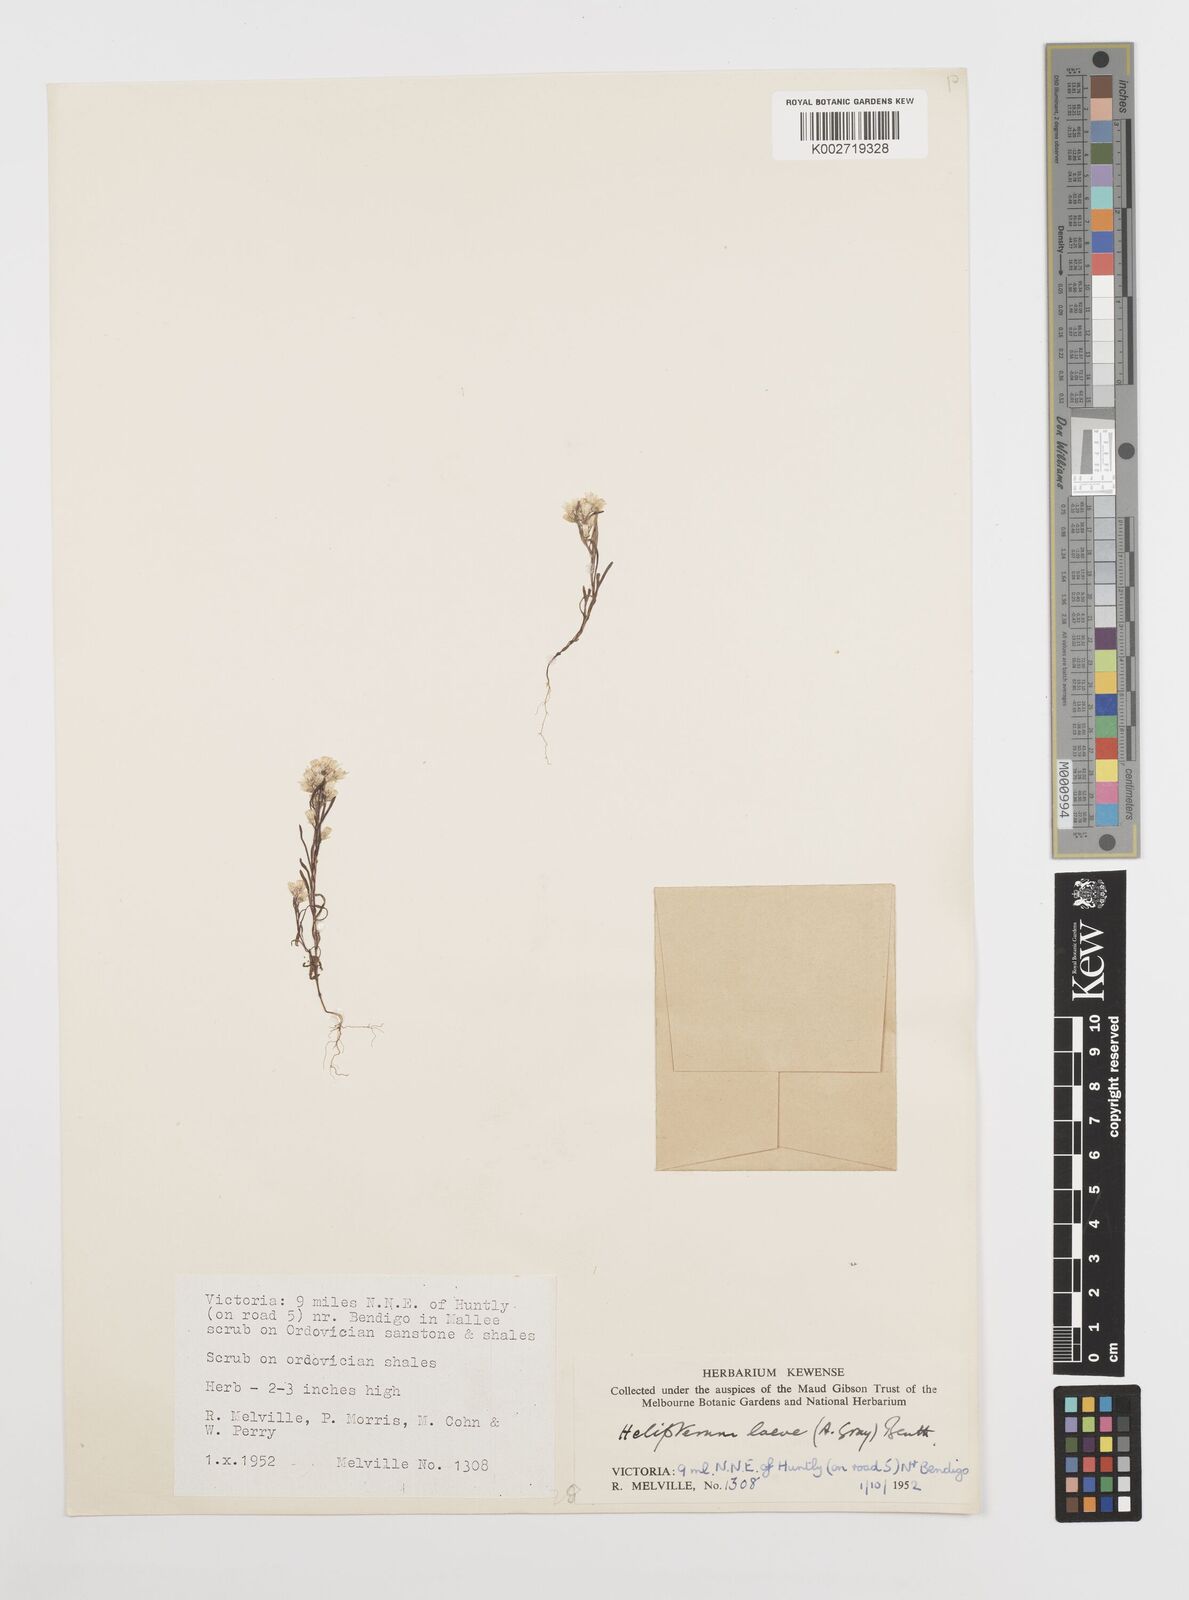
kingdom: Plantae
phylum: Tracheophyta
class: Magnoliopsida
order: Asterales
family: Asteraceae
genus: Rhodanthe
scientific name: Rhodanthe laevis
